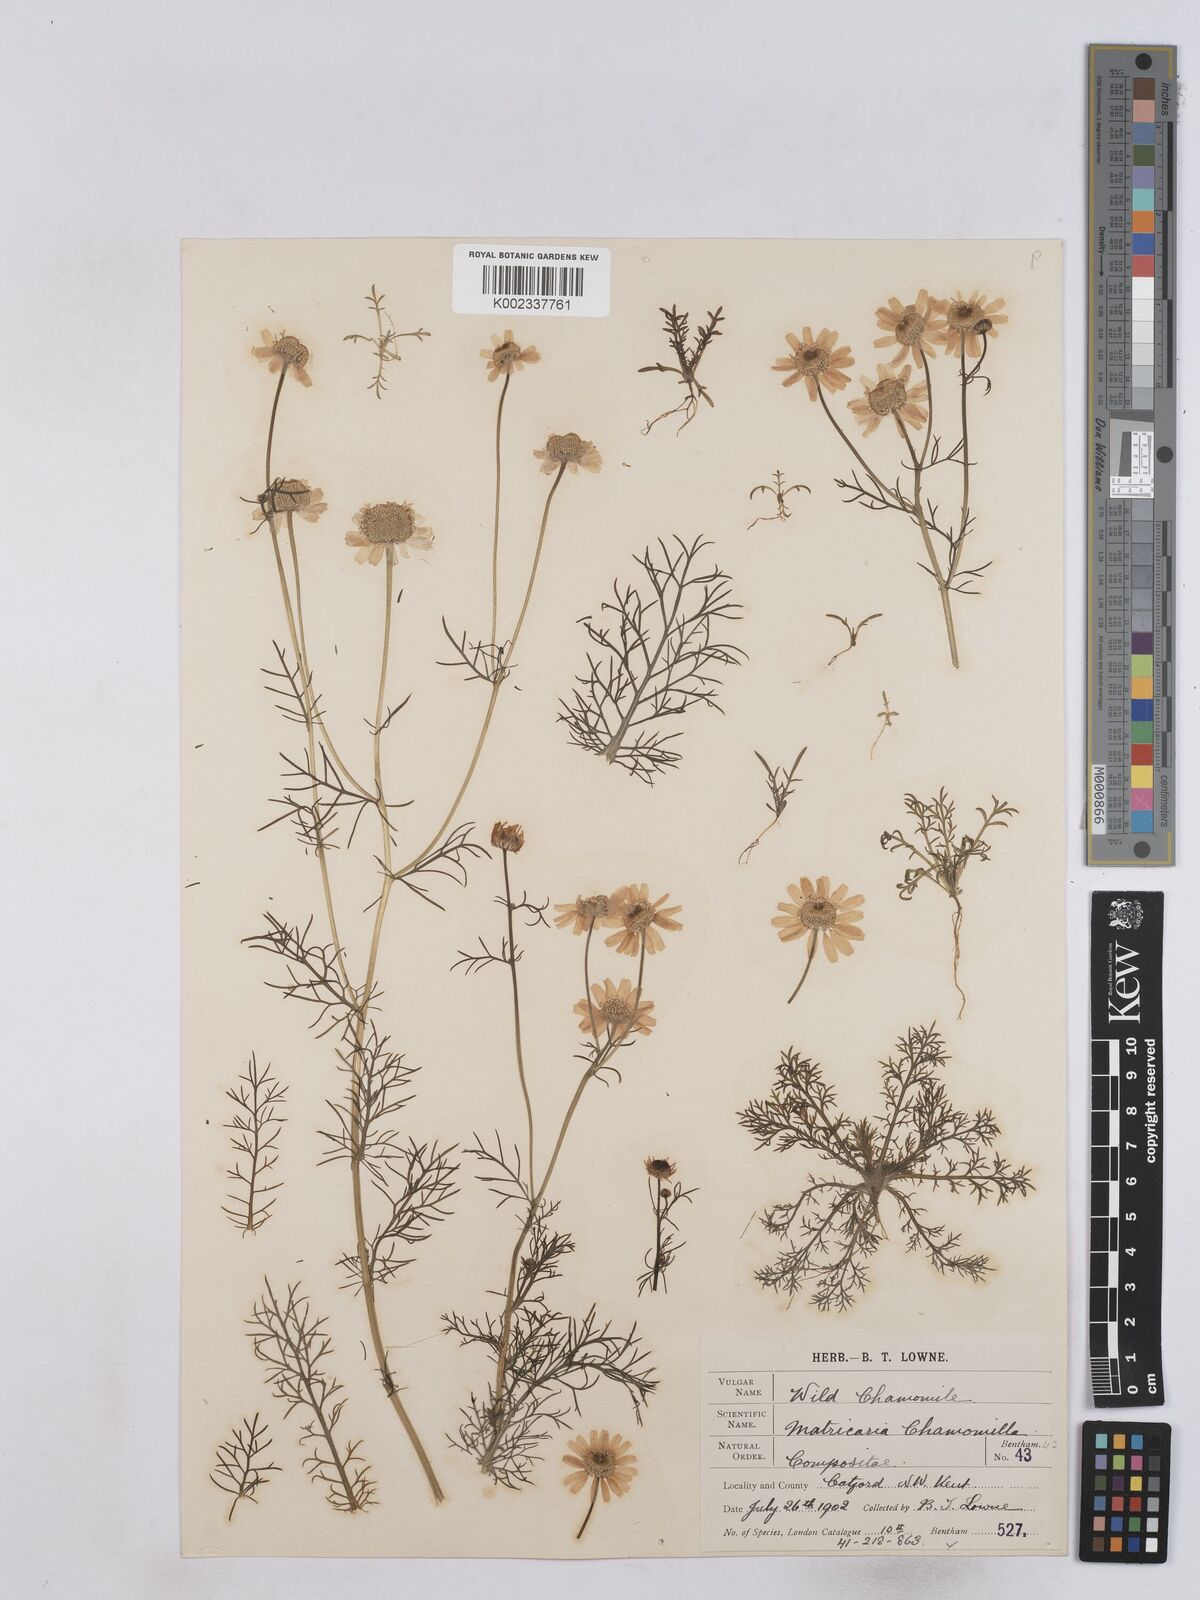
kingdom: Plantae
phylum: Tracheophyta
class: Magnoliopsida
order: Asterales
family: Asteraceae
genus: Matricaria
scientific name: Matricaria chamomilla
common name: Scented mayweed
